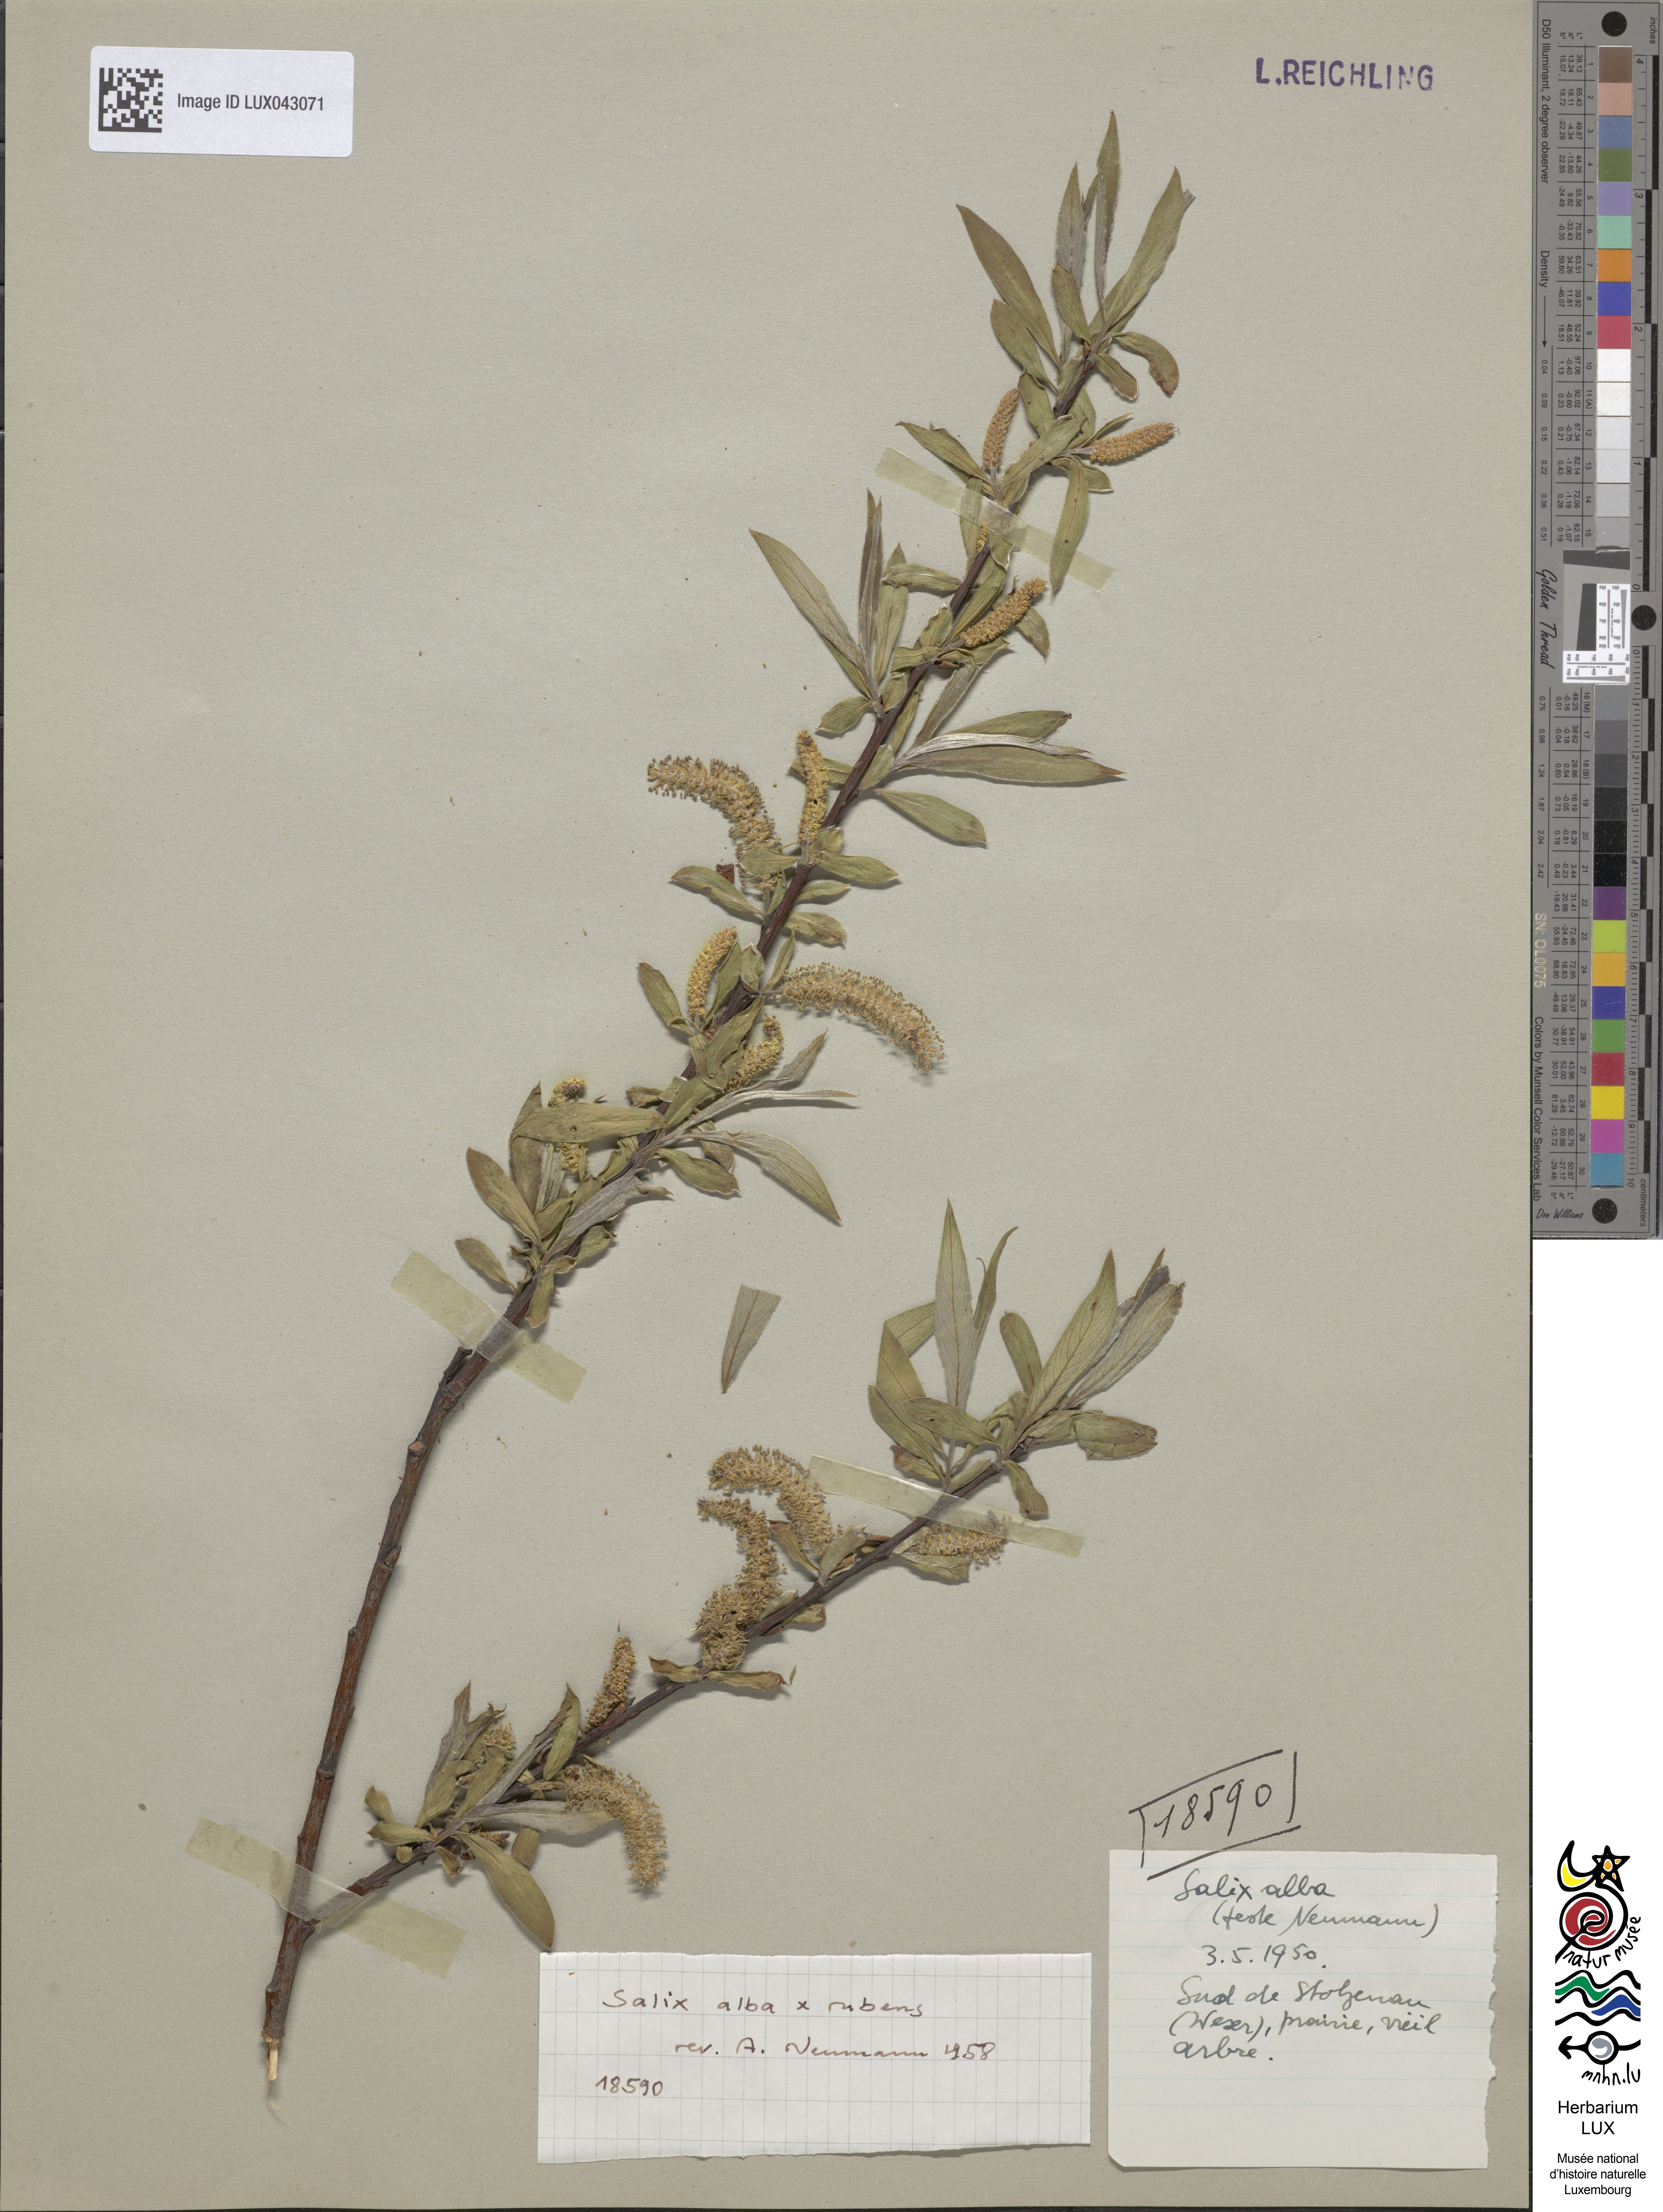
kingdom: Plantae
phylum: Tracheophyta
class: Magnoliopsida
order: Malpighiales
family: Salicaceae
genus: Salix
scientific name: Salix rubens
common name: Hybrid crack willow
